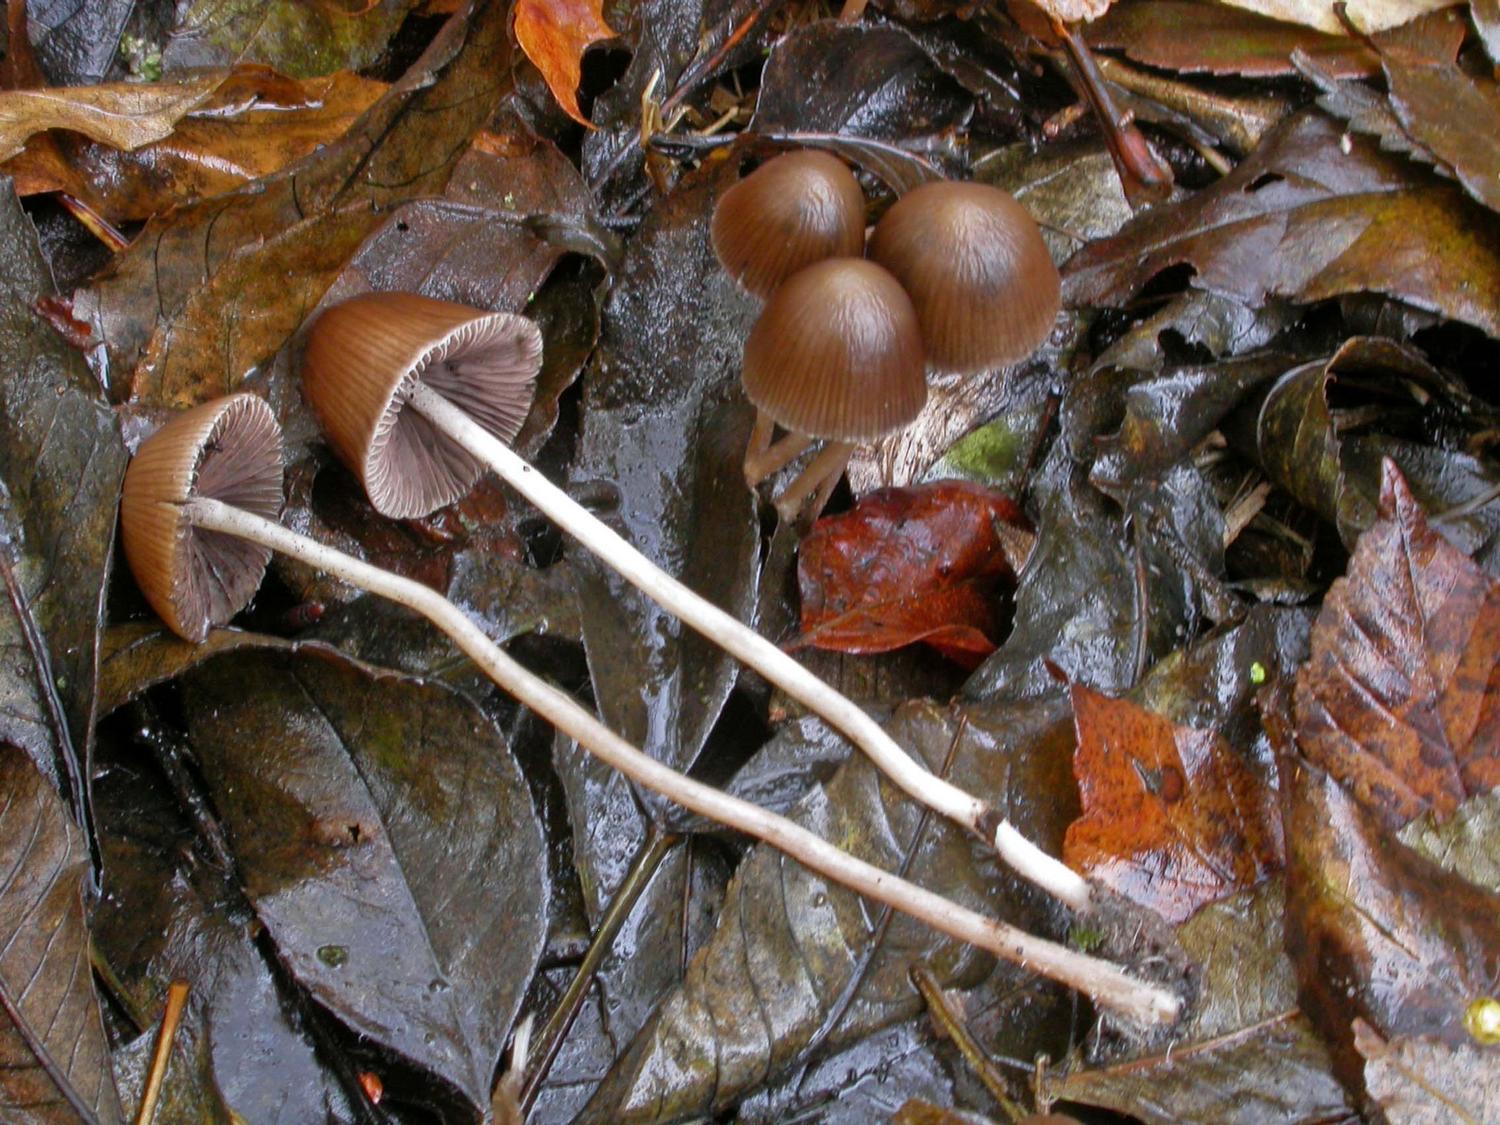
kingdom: Fungi
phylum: Basidiomycota
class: Agaricomycetes
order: Agaricales
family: Psathyrellaceae
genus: Psathyrella
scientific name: Psathyrella corrugis
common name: rødægget mørkhat
